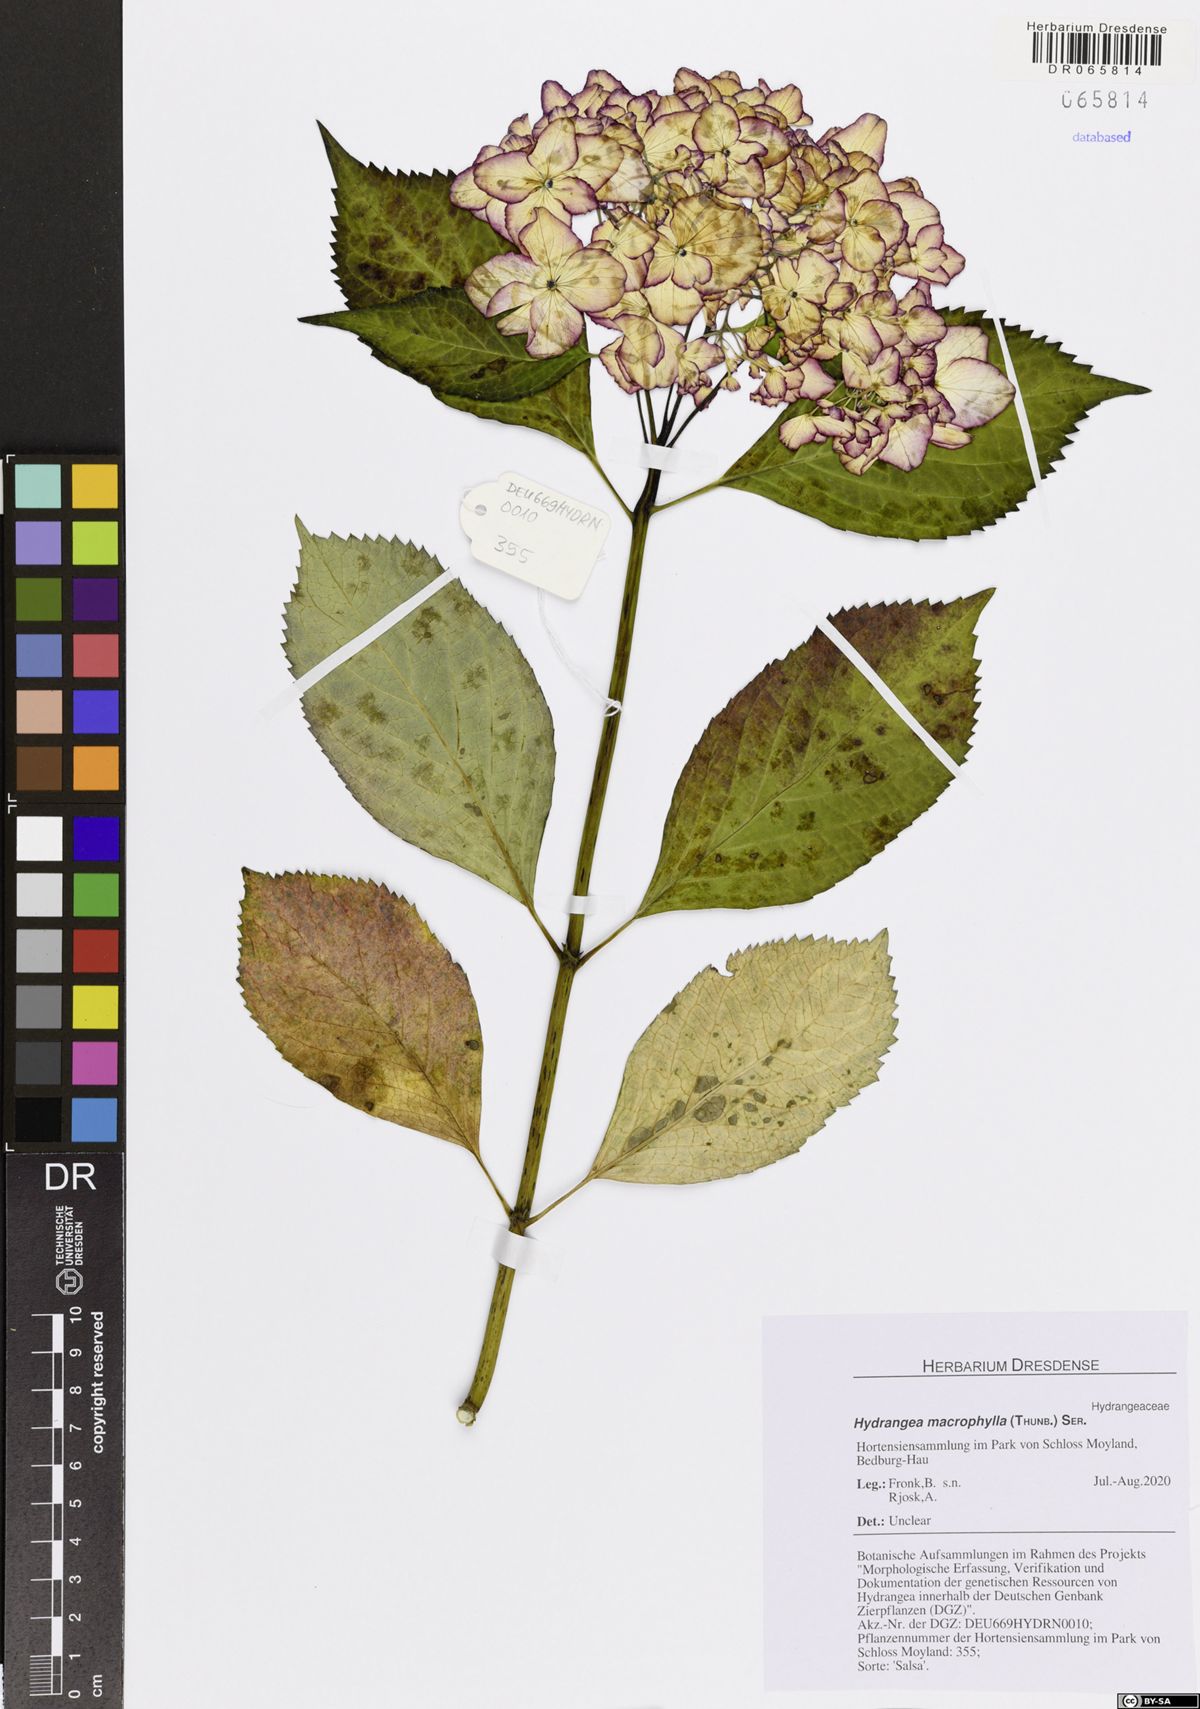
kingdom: Plantae
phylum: Tracheophyta
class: Magnoliopsida
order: Cornales
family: Hydrangeaceae
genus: Hydrangea
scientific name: Hydrangea macrophylla
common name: Hydrangea
